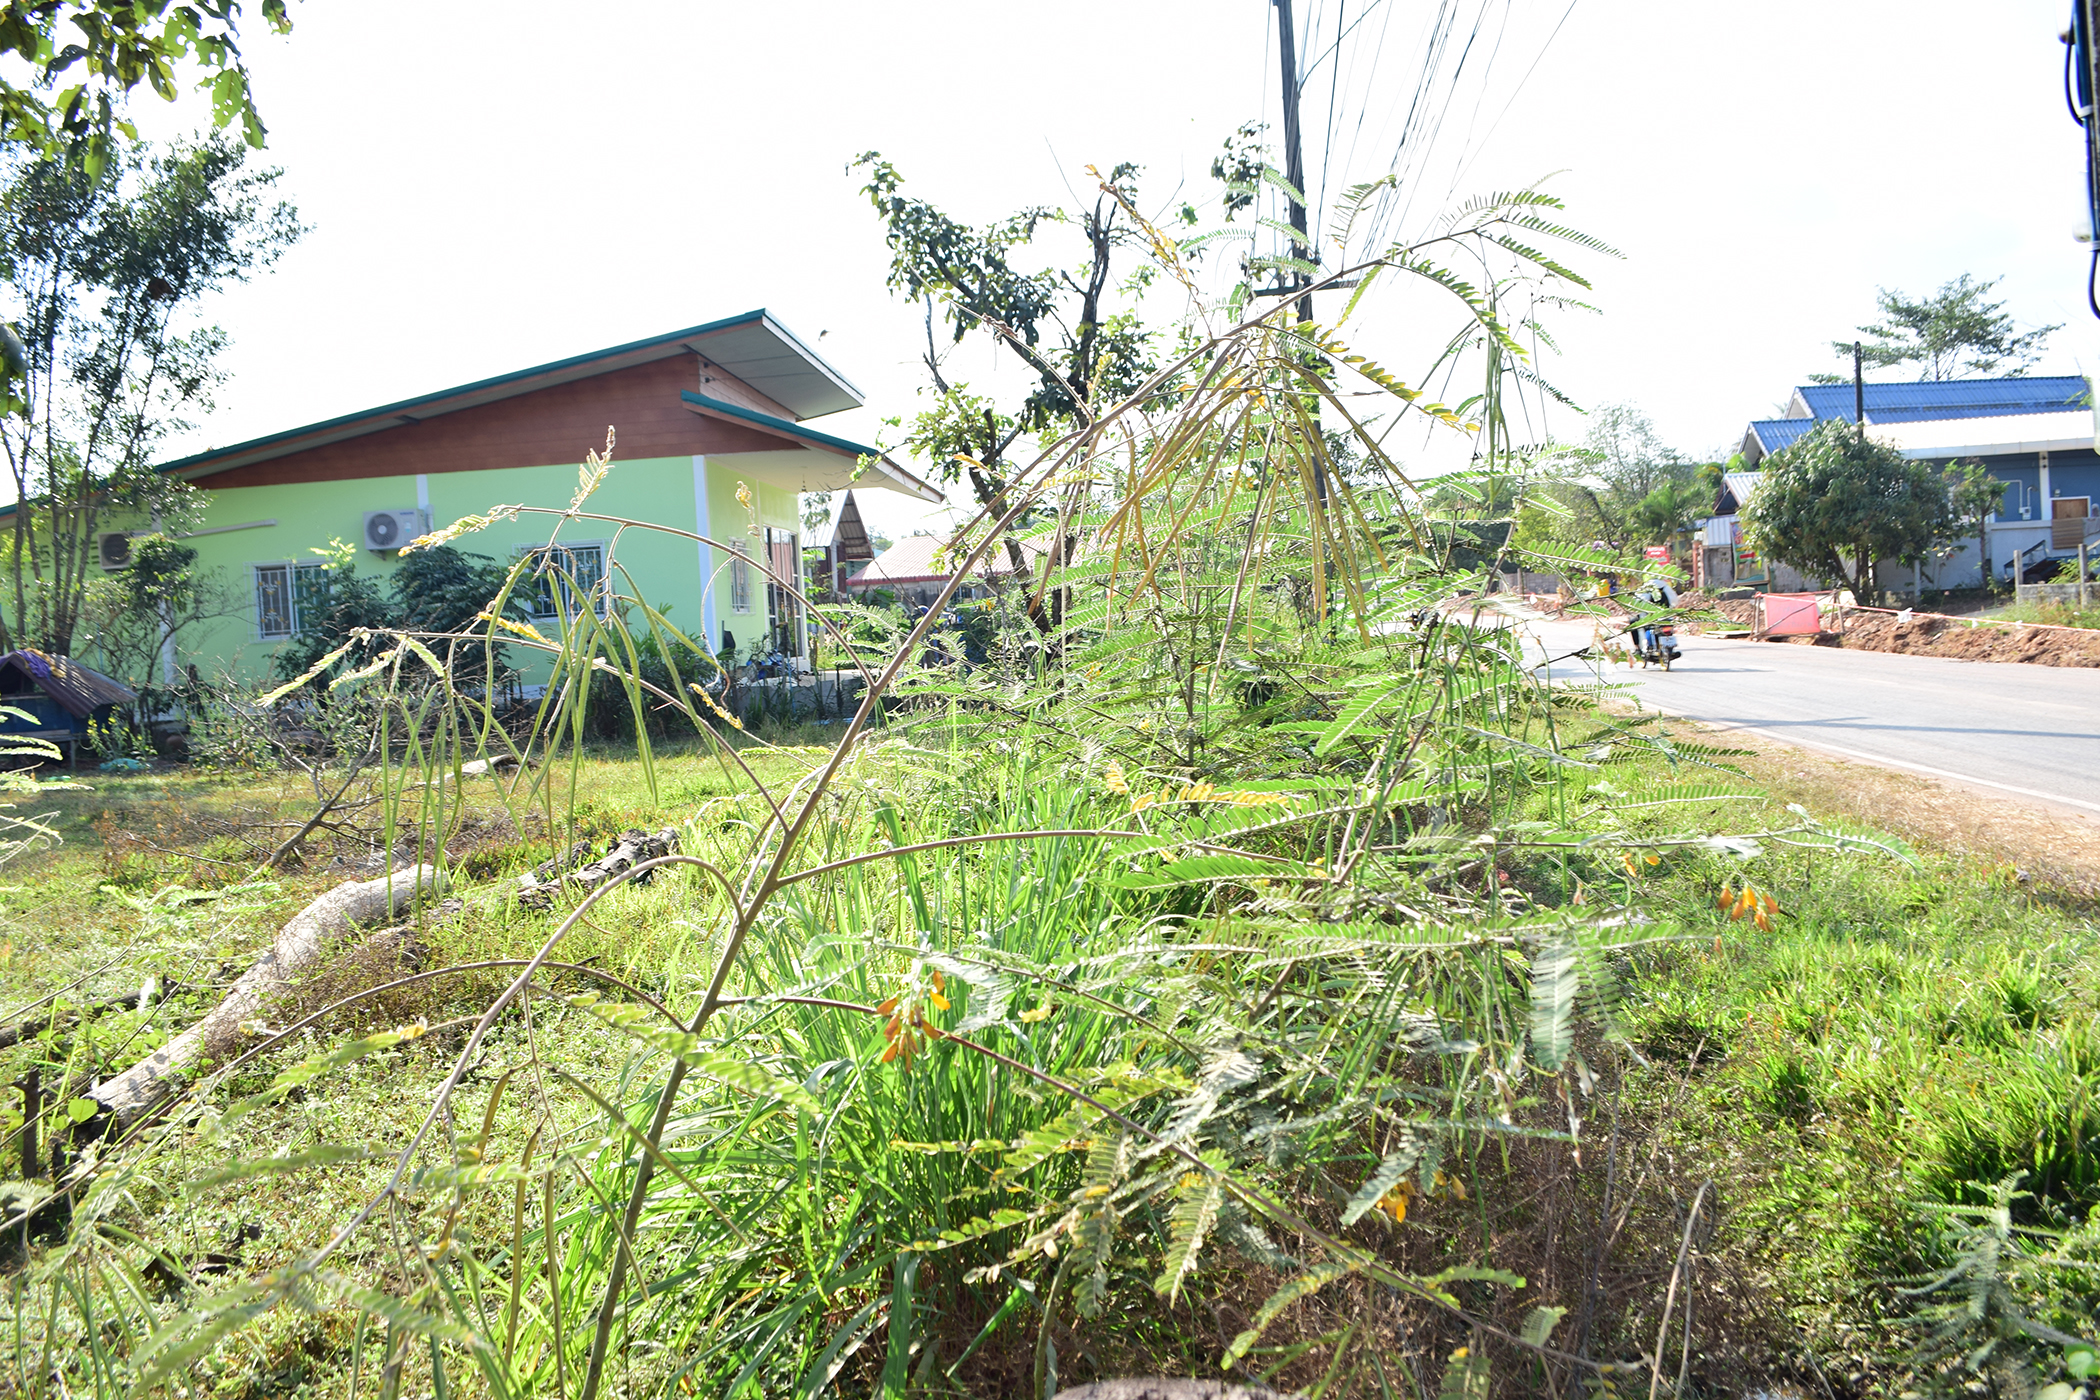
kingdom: Plantae
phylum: Tracheophyta
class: Magnoliopsida
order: Fabales
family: Fabaceae
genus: Sesbania
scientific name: Sesbania speciosa
